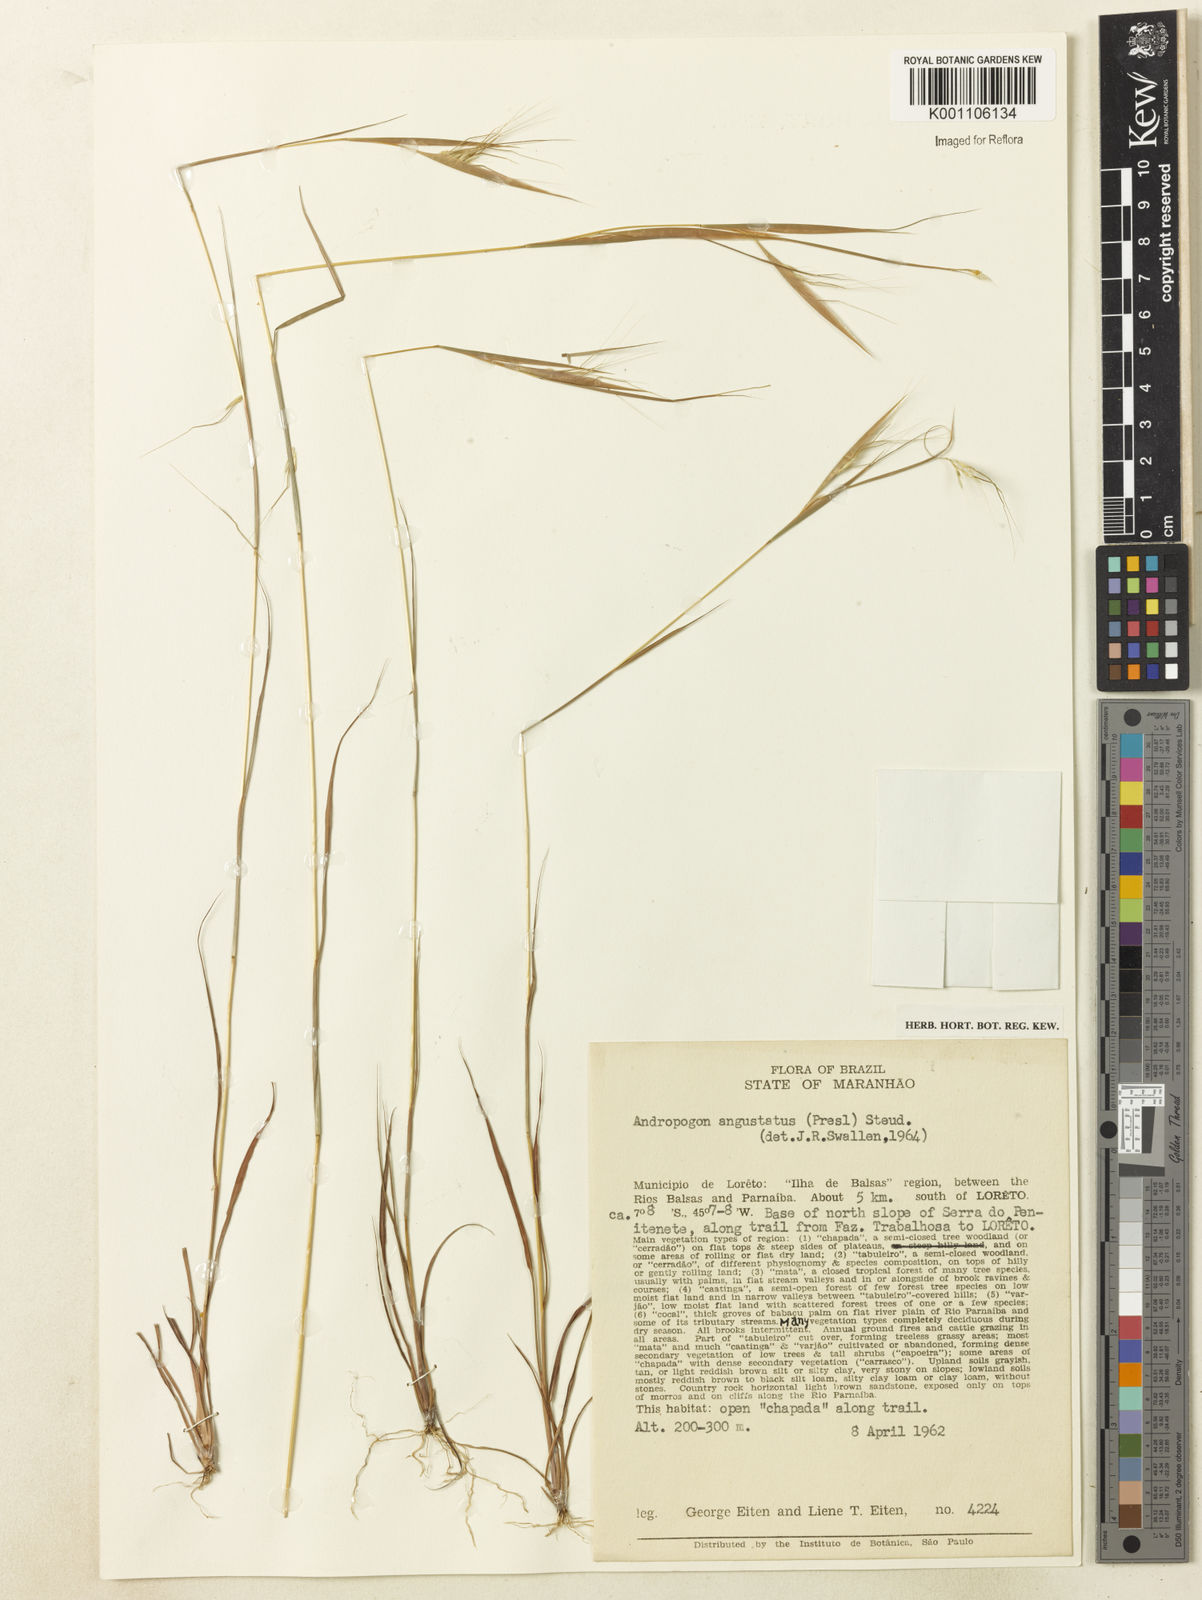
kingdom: Plantae
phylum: Tracheophyta
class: Liliopsida
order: Poales
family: Poaceae
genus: Euclasta
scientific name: Euclasta condylotricha
